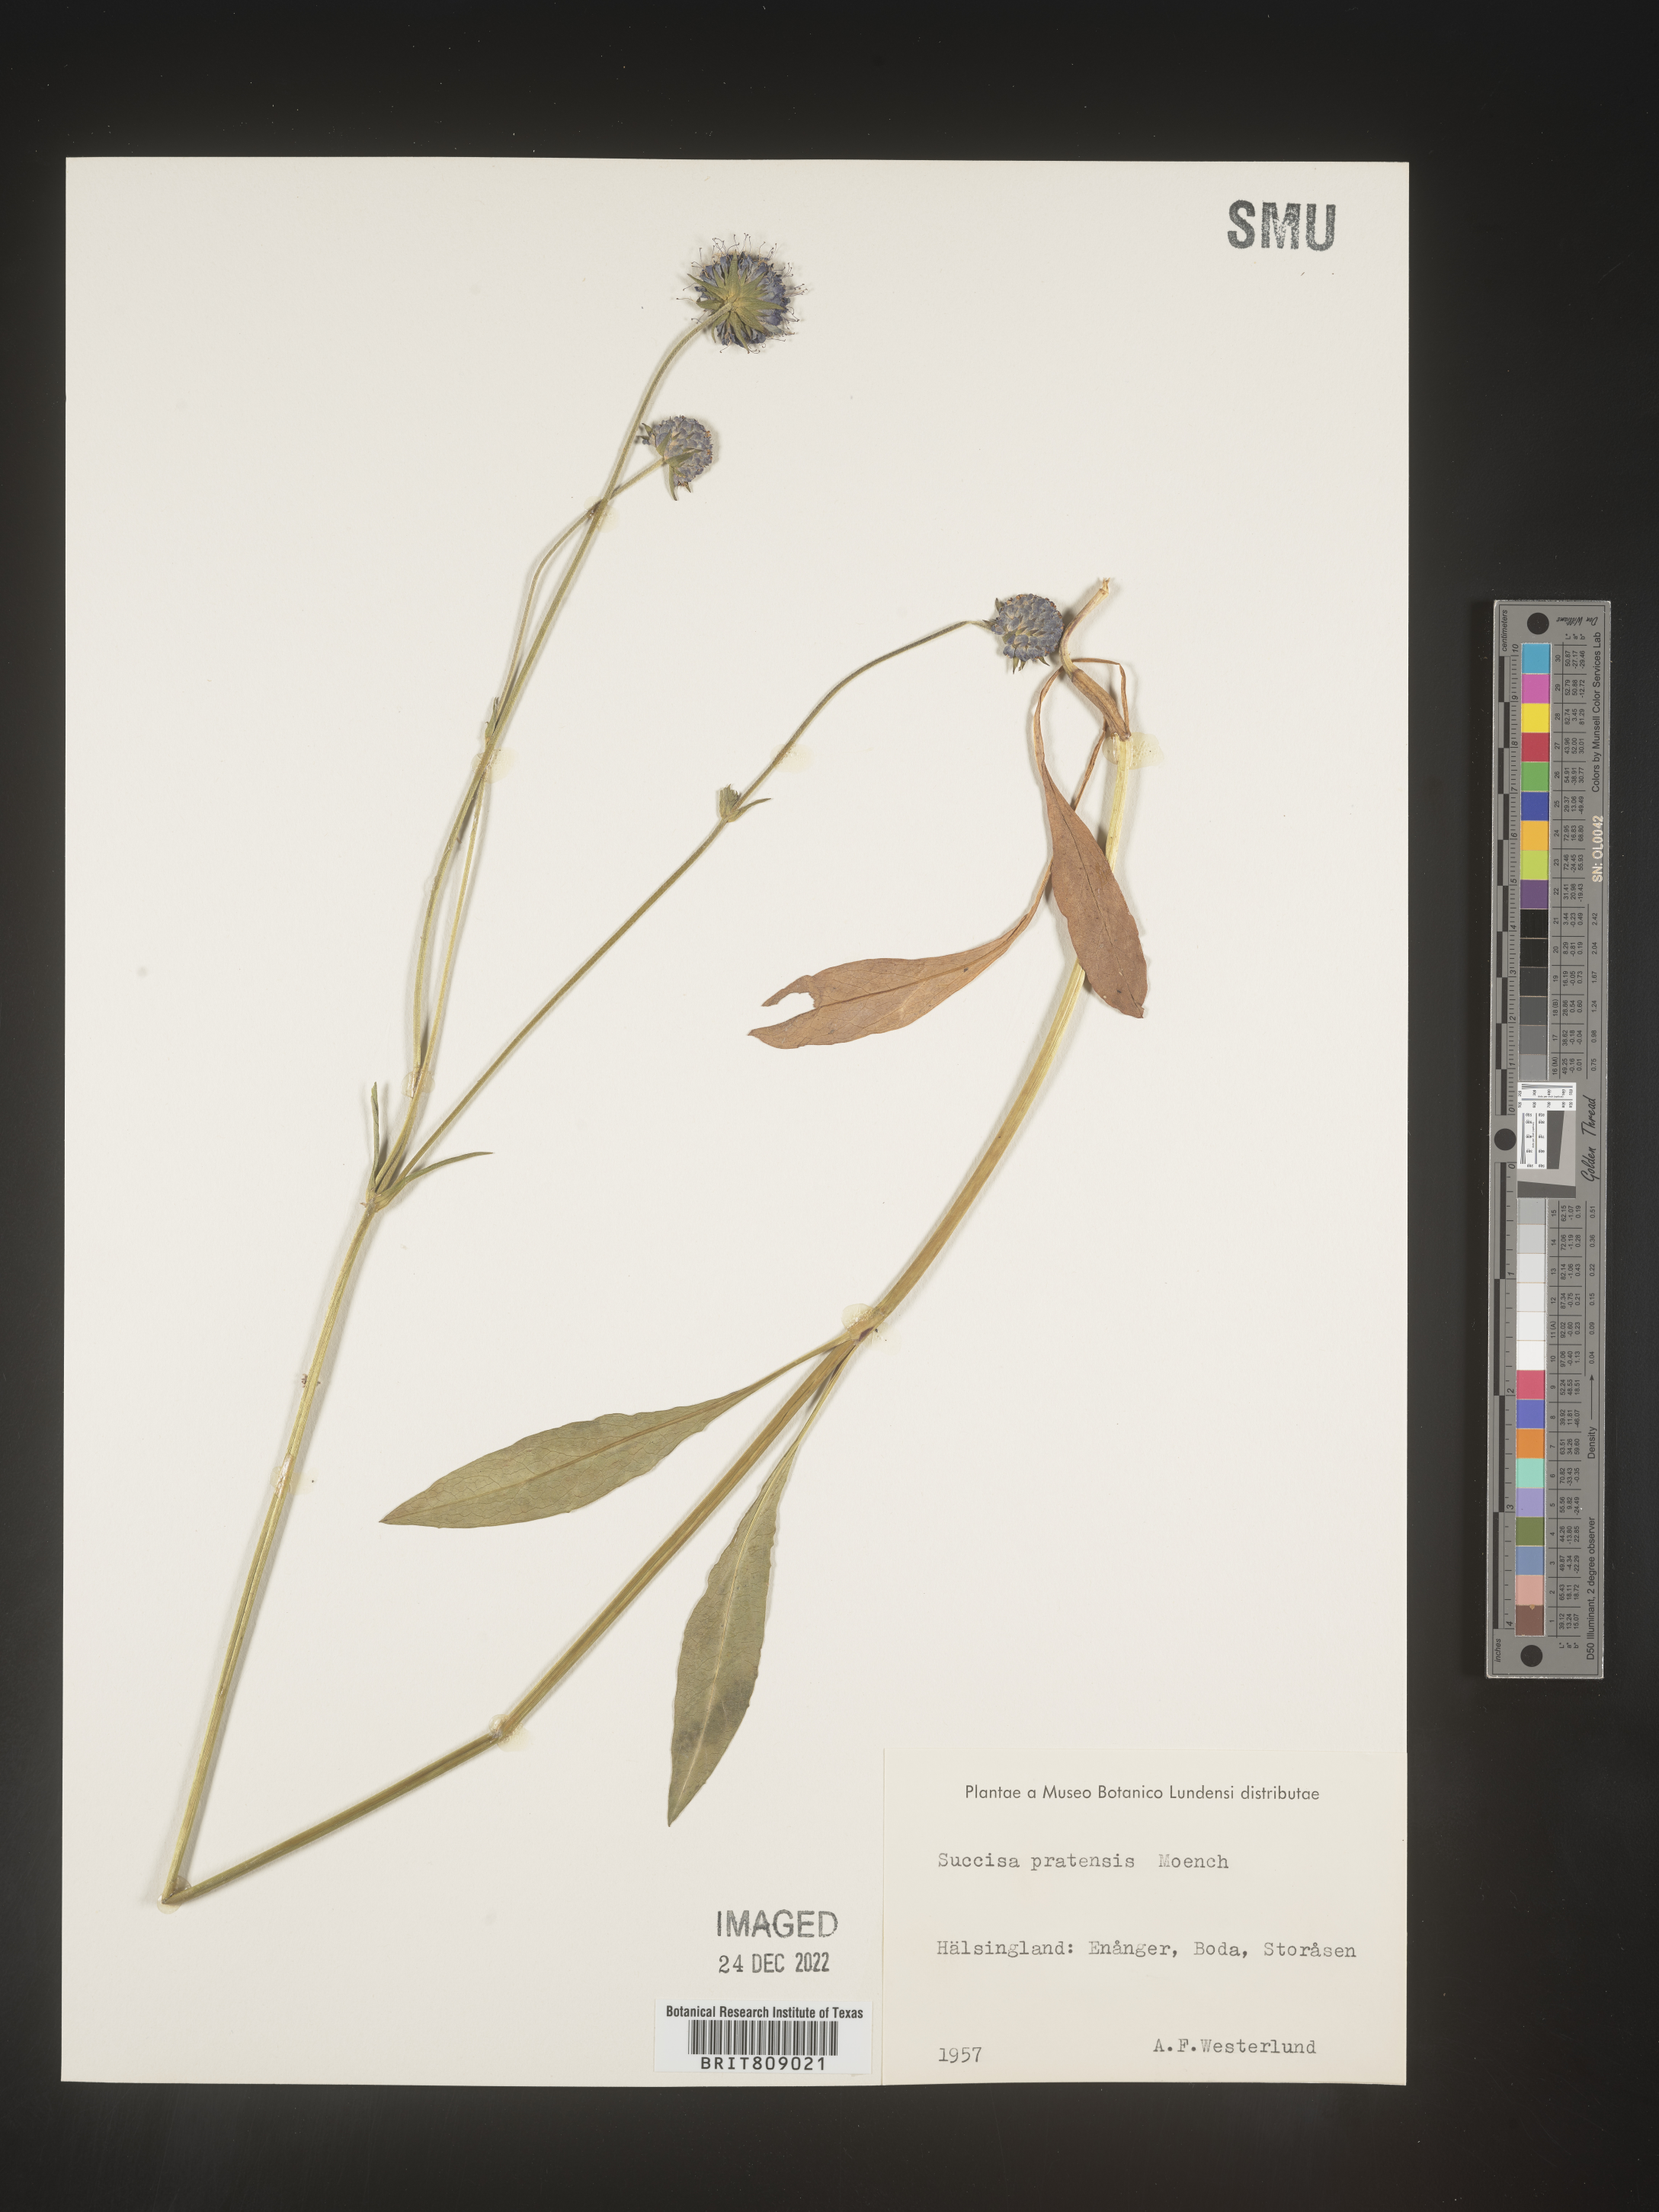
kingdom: Plantae
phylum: Tracheophyta
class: Magnoliopsida
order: Dipsacales
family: Caprifoliaceae
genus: Succisa
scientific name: Succisa
